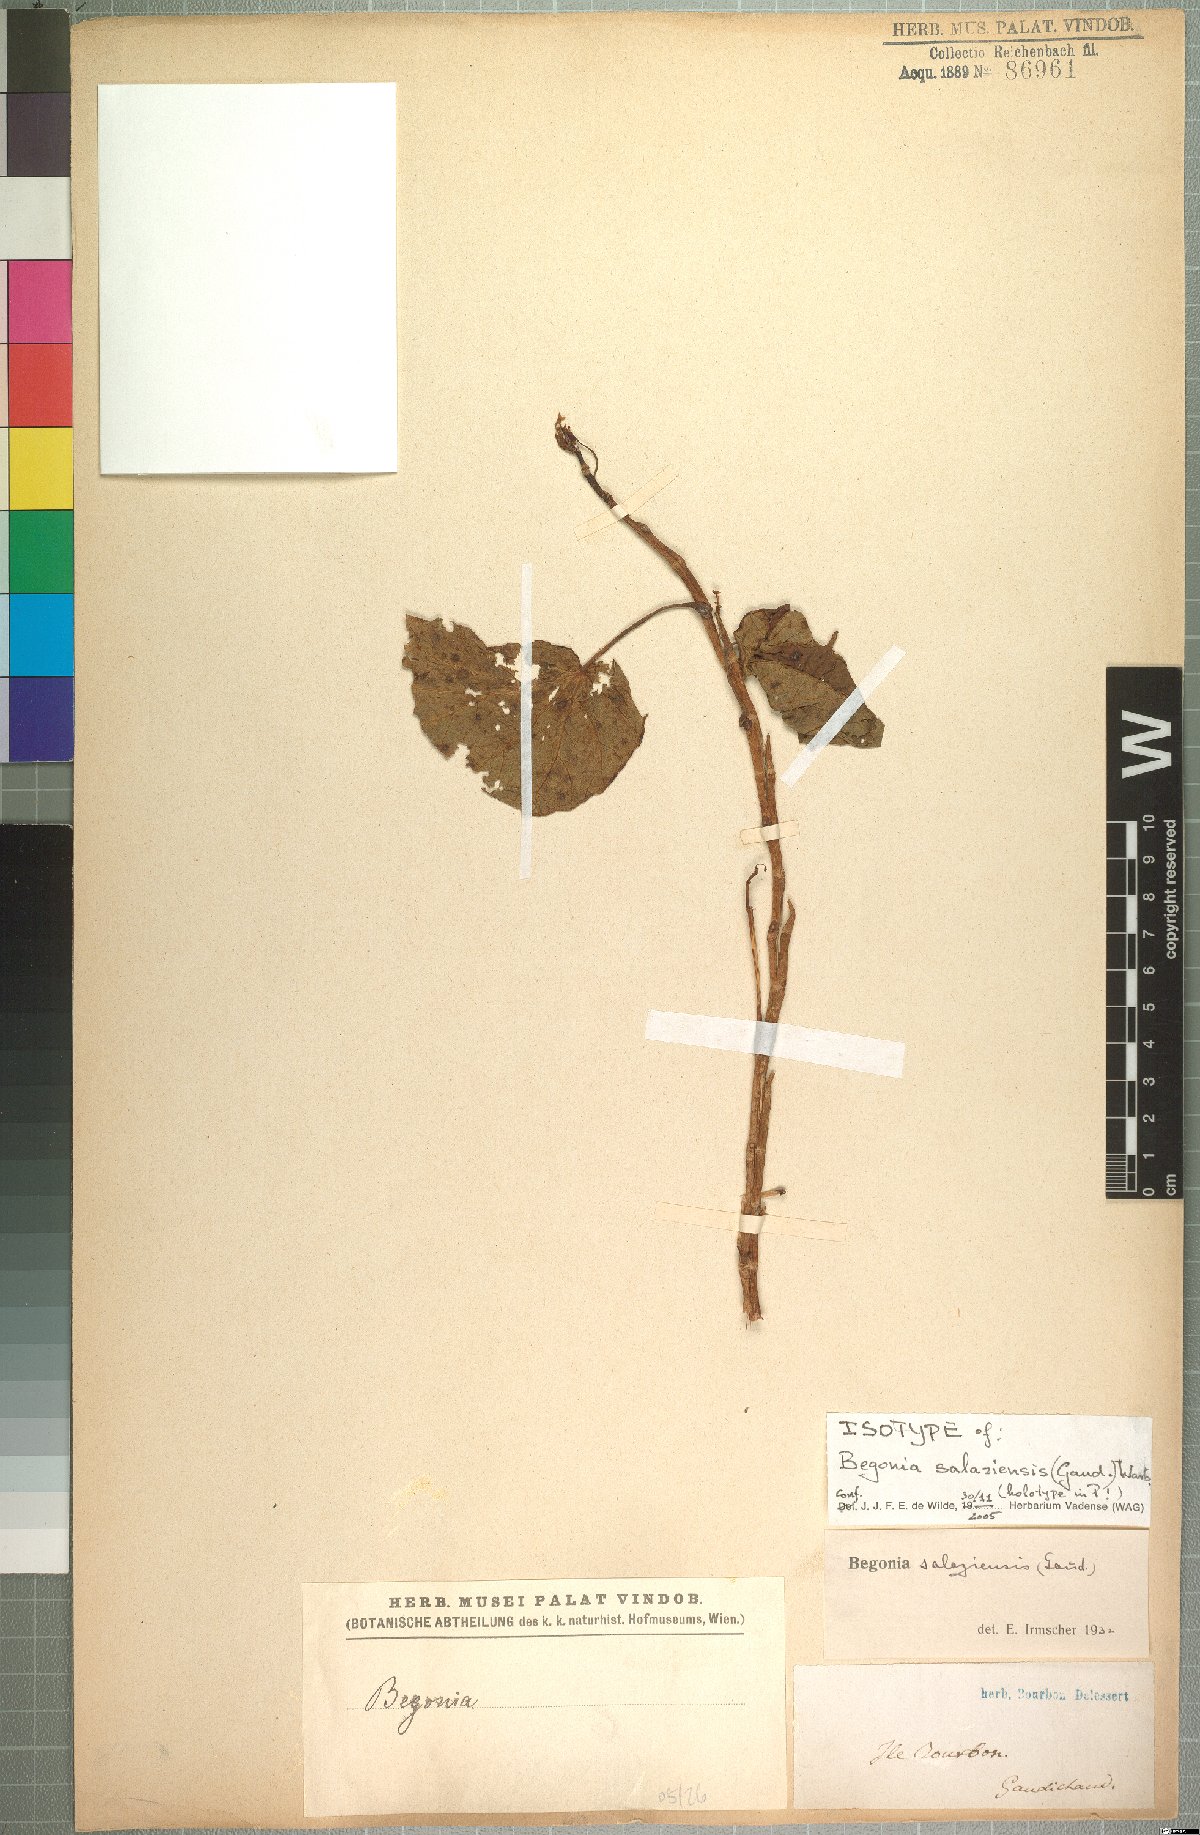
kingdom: Plantae
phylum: Tracheophyta
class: Magnoliopsida
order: Cucurbitales
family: Begoniaceae
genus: Begonia
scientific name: Begonia salaziensis
